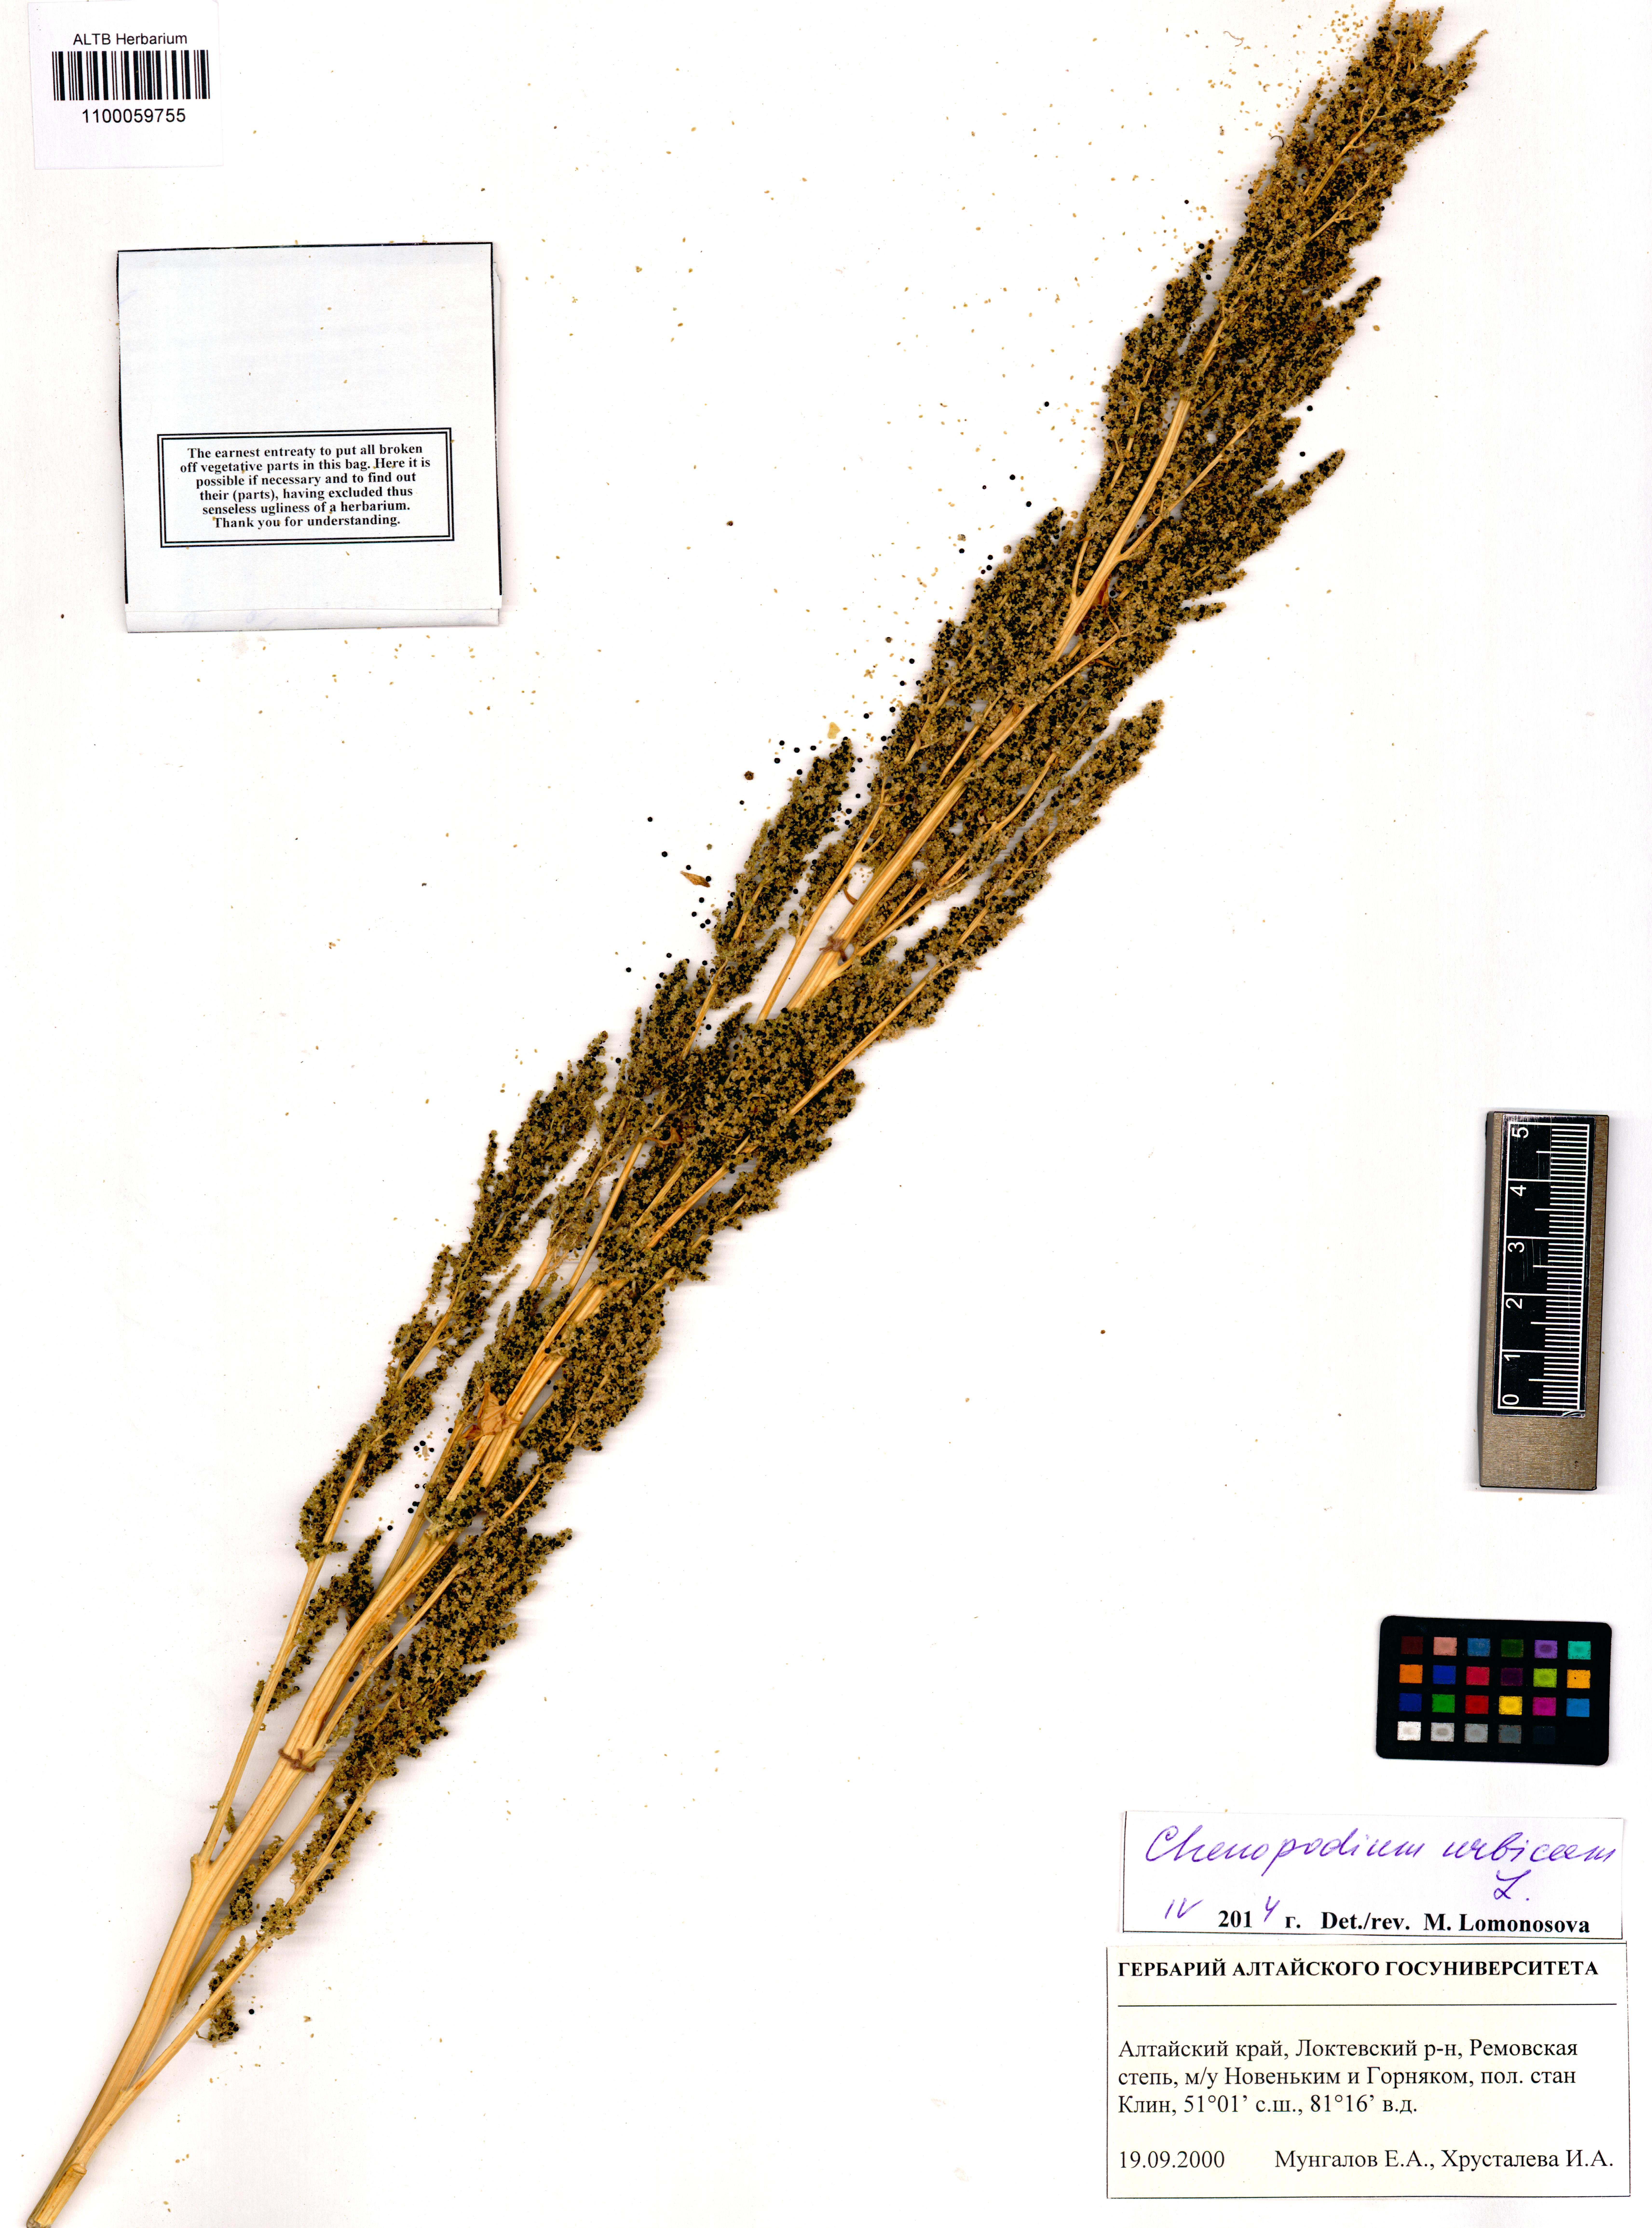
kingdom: Plantae
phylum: Tracheophyta
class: Magnoliopsida
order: Caryophyllales
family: Amaranthaceae
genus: Oxybasis
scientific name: Oxybasis urbica
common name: City goosefoot
